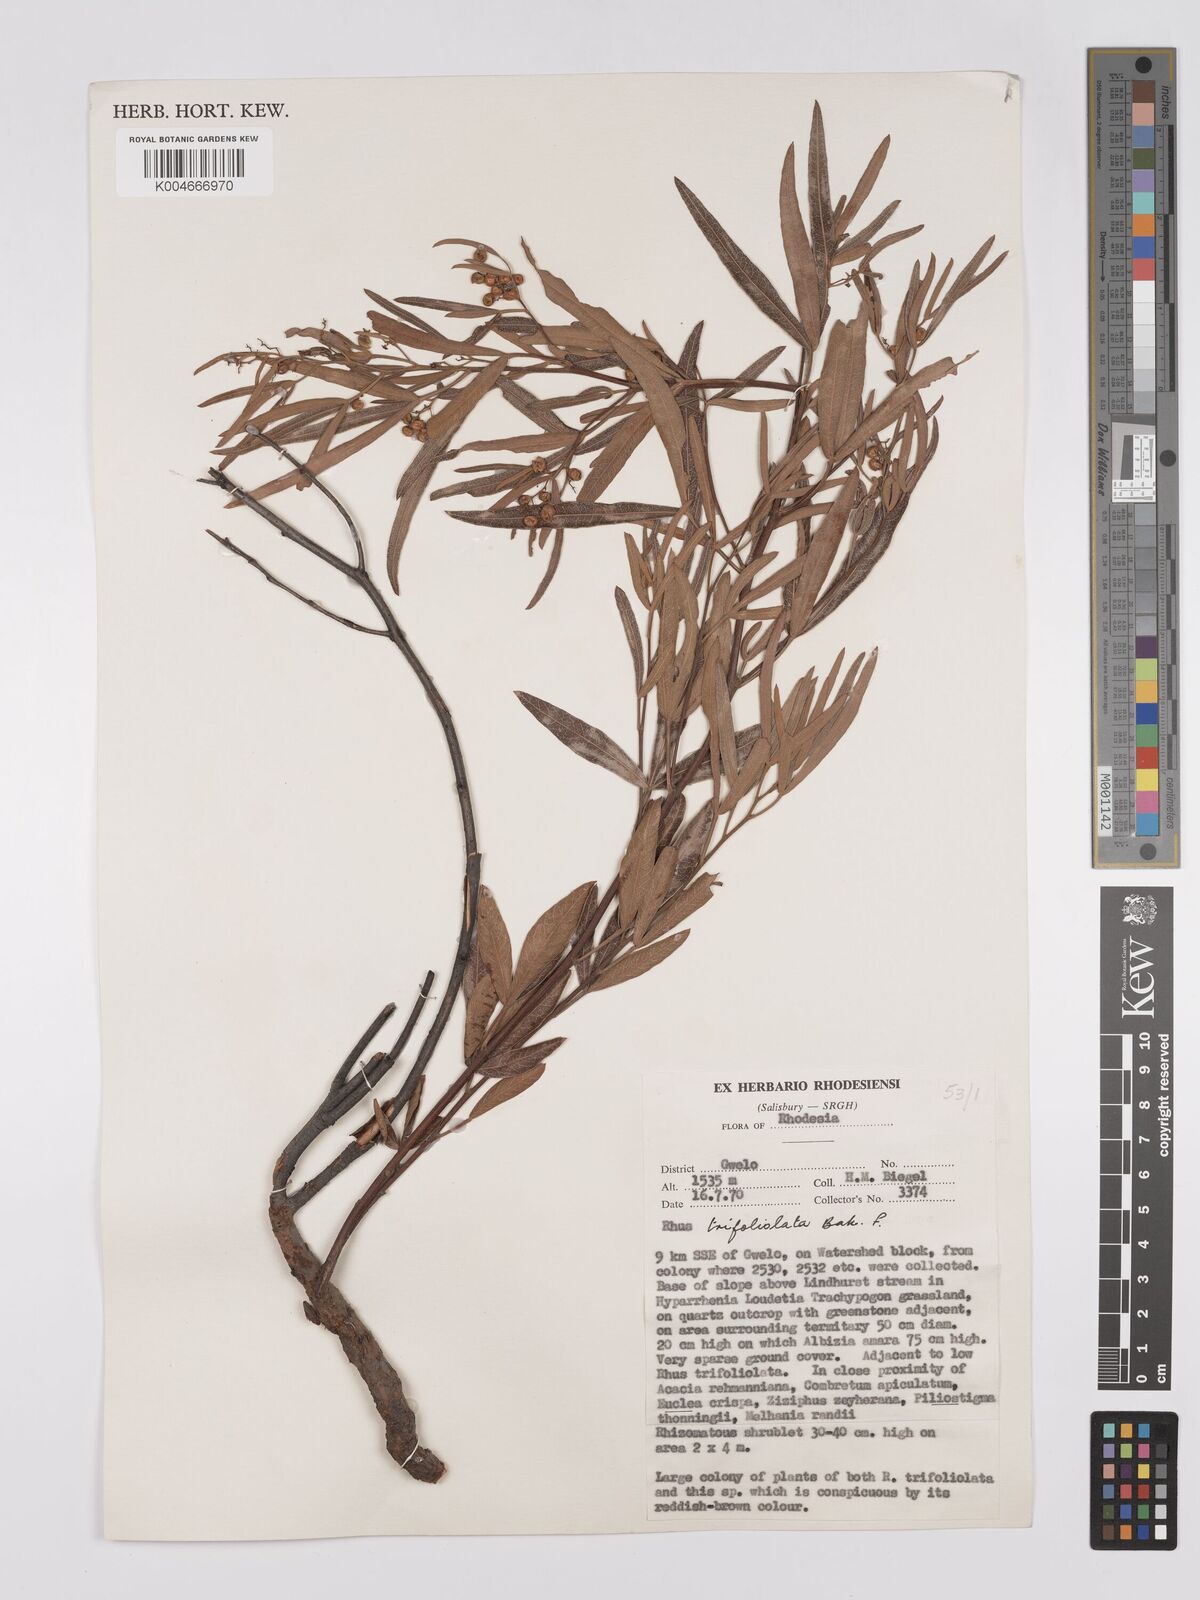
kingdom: Plantae
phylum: Tracheophyta
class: Magnoliopsida
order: Sapindales
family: Anacardiaceae
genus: Searsia
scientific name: Searsia magalismontana
